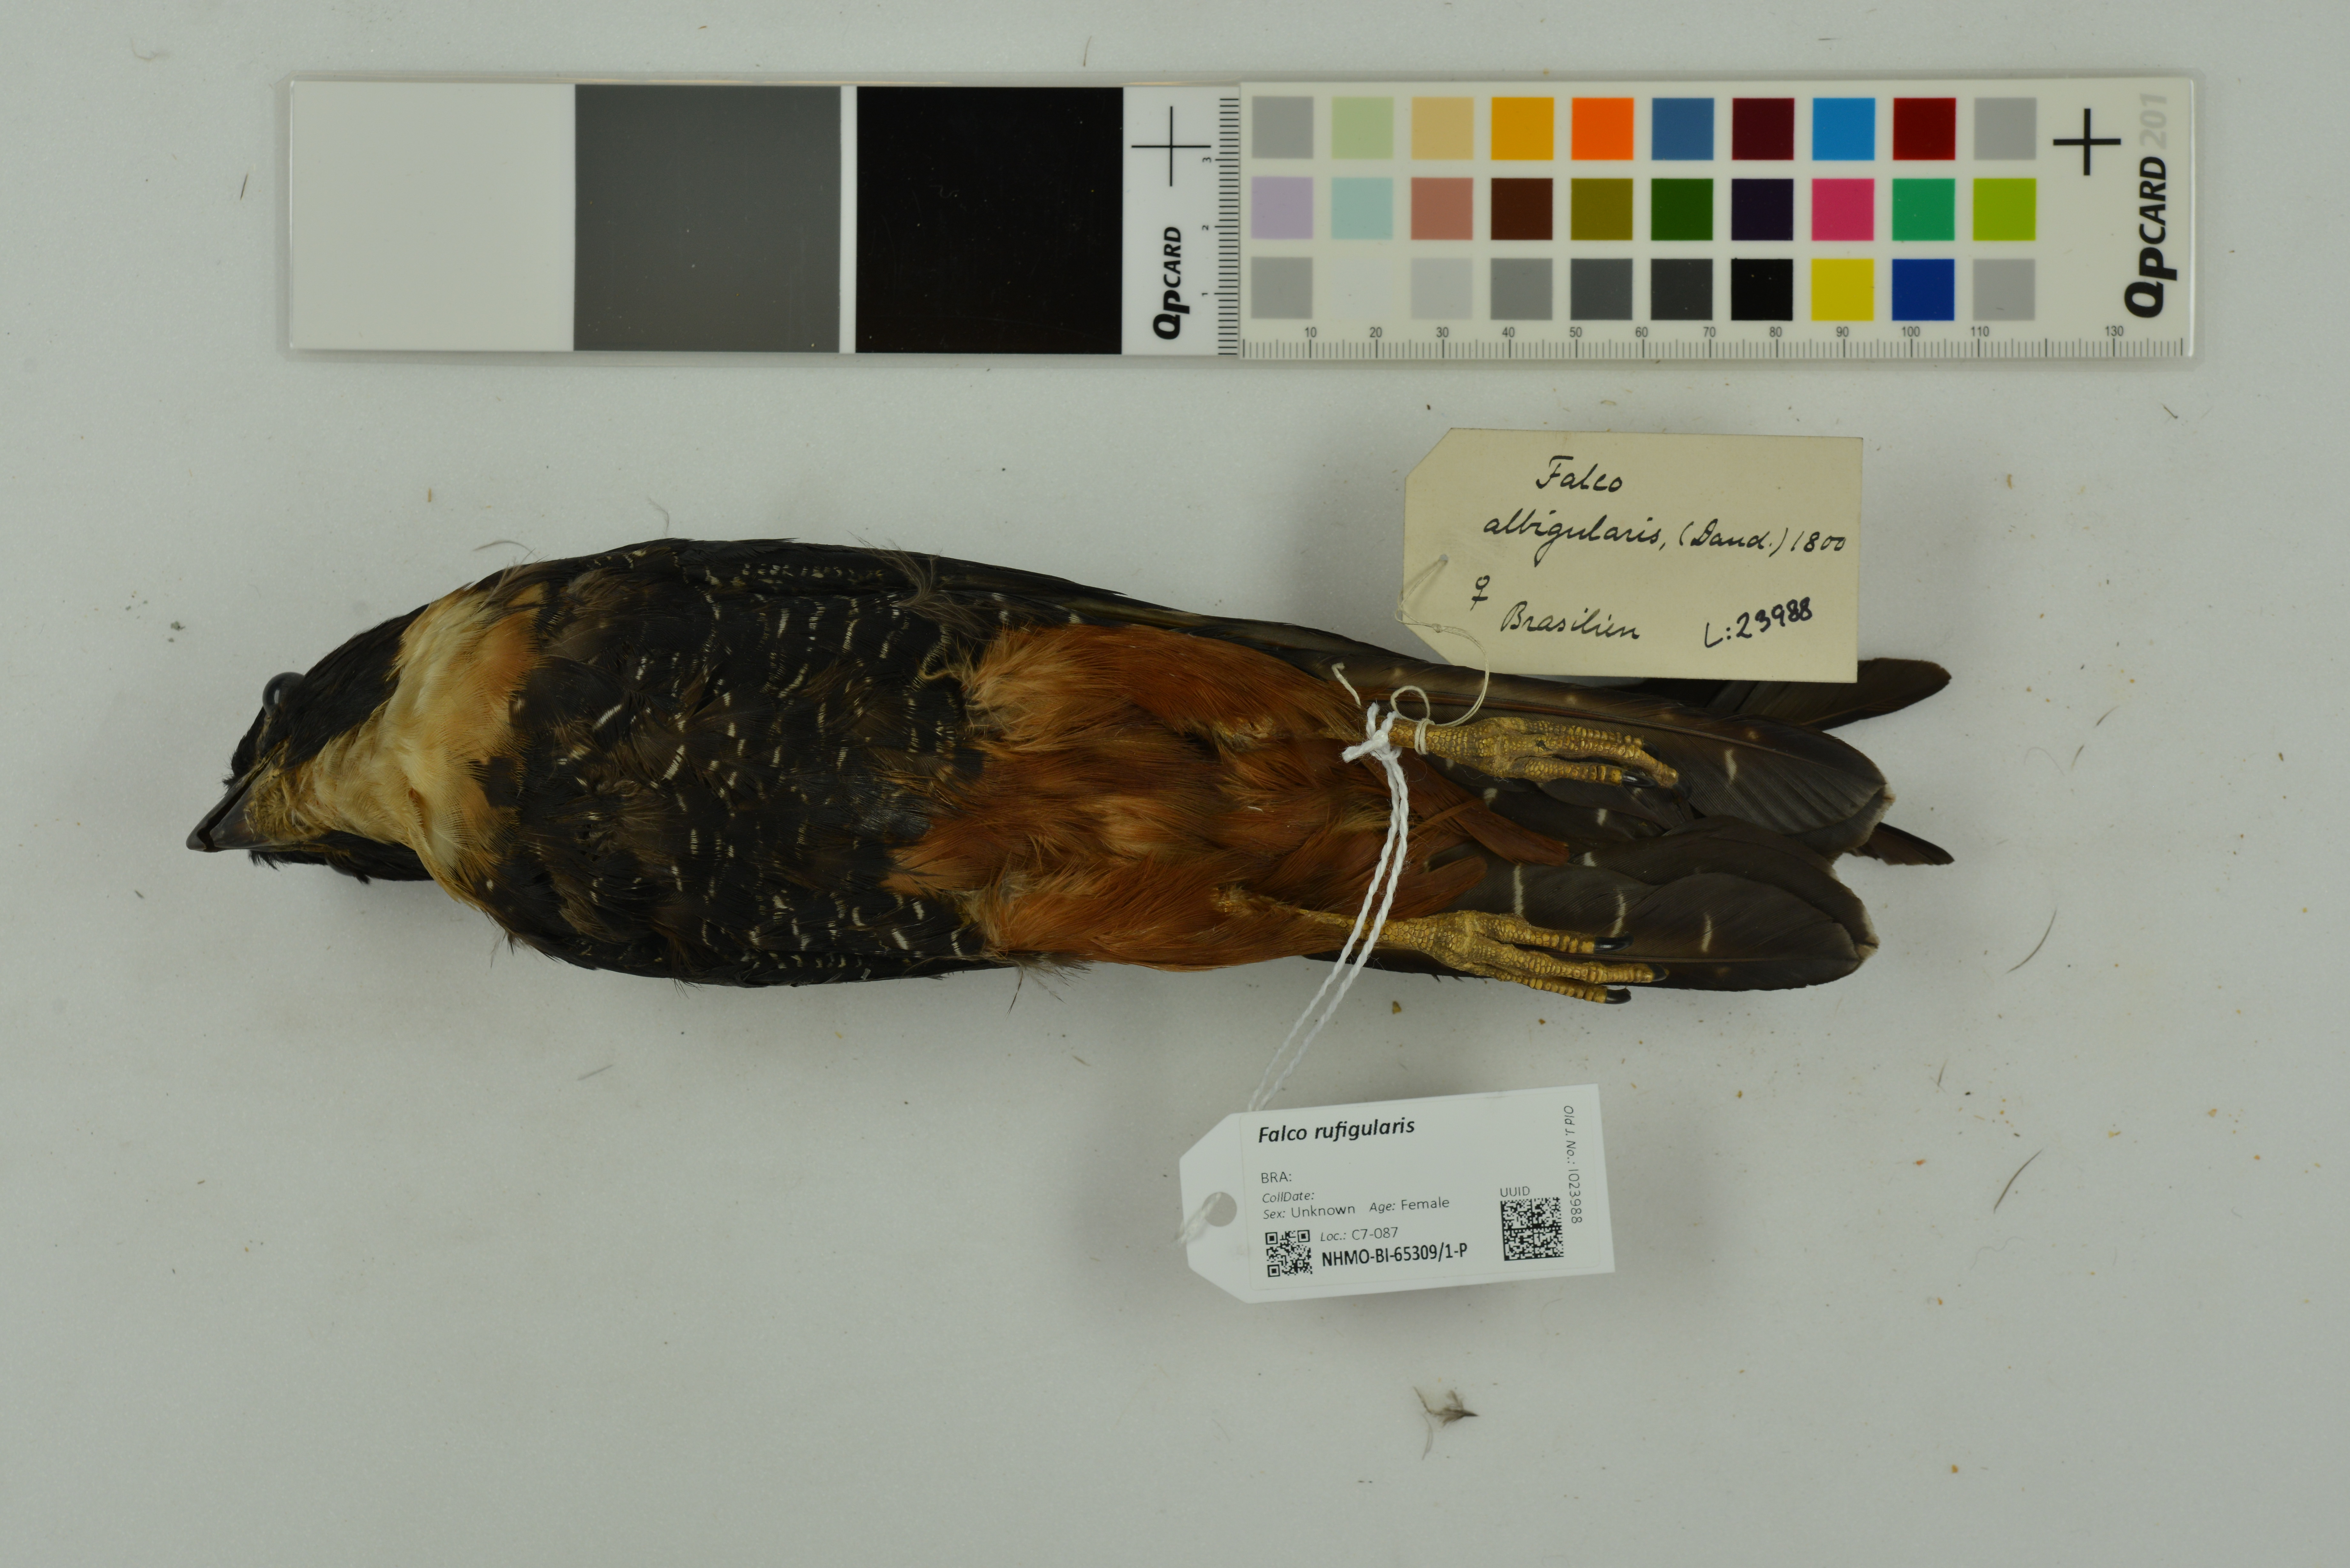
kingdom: Animalia
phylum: Chordata
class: Aves
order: Falconiformes
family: Falconidae
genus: Falco
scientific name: Falco rufigularis
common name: Bat falcon
